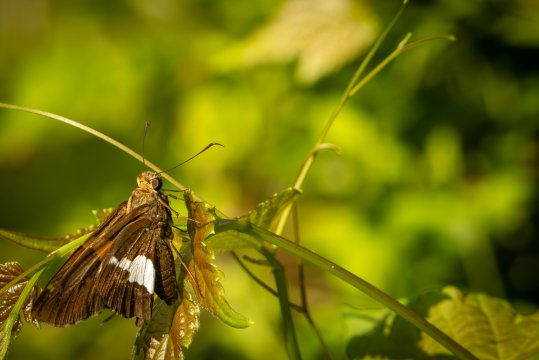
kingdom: Animalia
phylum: Arthropoda
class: Insecta
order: Lepidoptera
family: Hesperiidae
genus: Epargyreus
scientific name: Epargyreus clarus
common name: Silver-spotted Skipper
